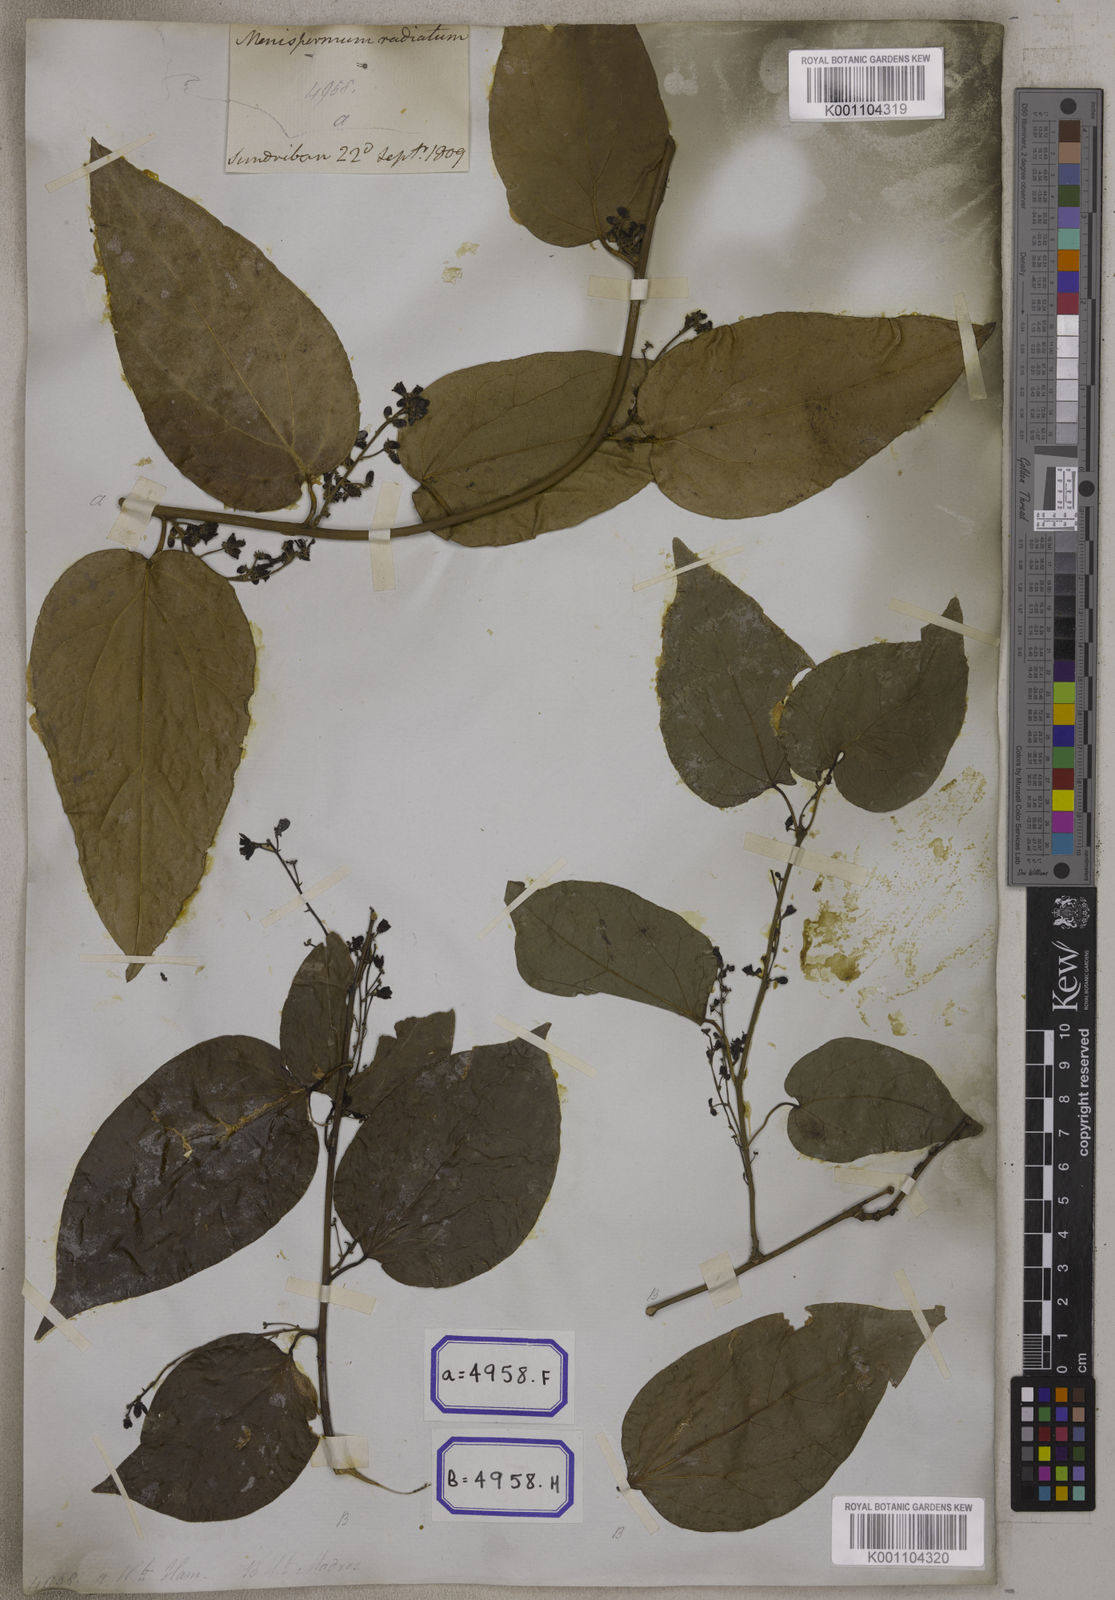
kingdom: Plantae
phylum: Tracheophyta
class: Magnoliopsida
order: Ranunculales
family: Menispermaceae
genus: Cocculus
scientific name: Cocculus
